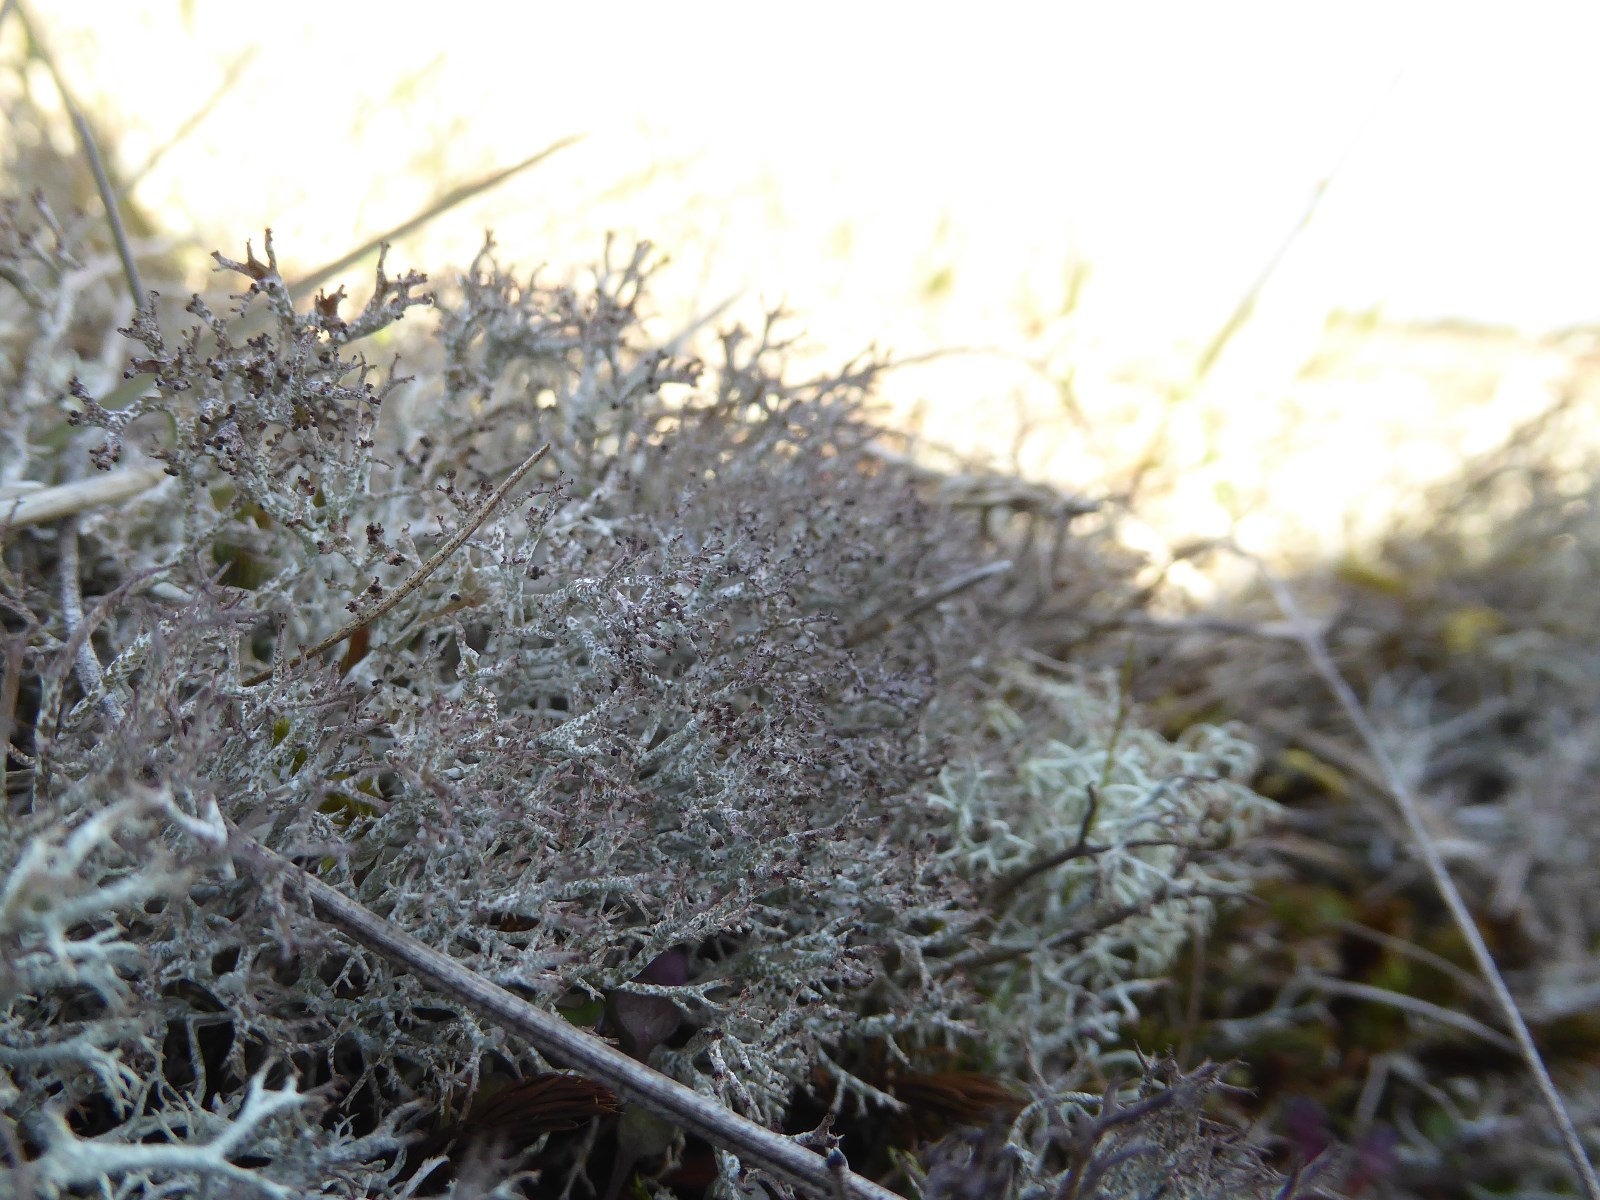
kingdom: Fungi
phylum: Ascomycota
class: Lecanoromycetes
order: Lecanorales
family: Cladoniaceae
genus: Cladonia
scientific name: Cladonia rangiformis
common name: spættet bægerlav
